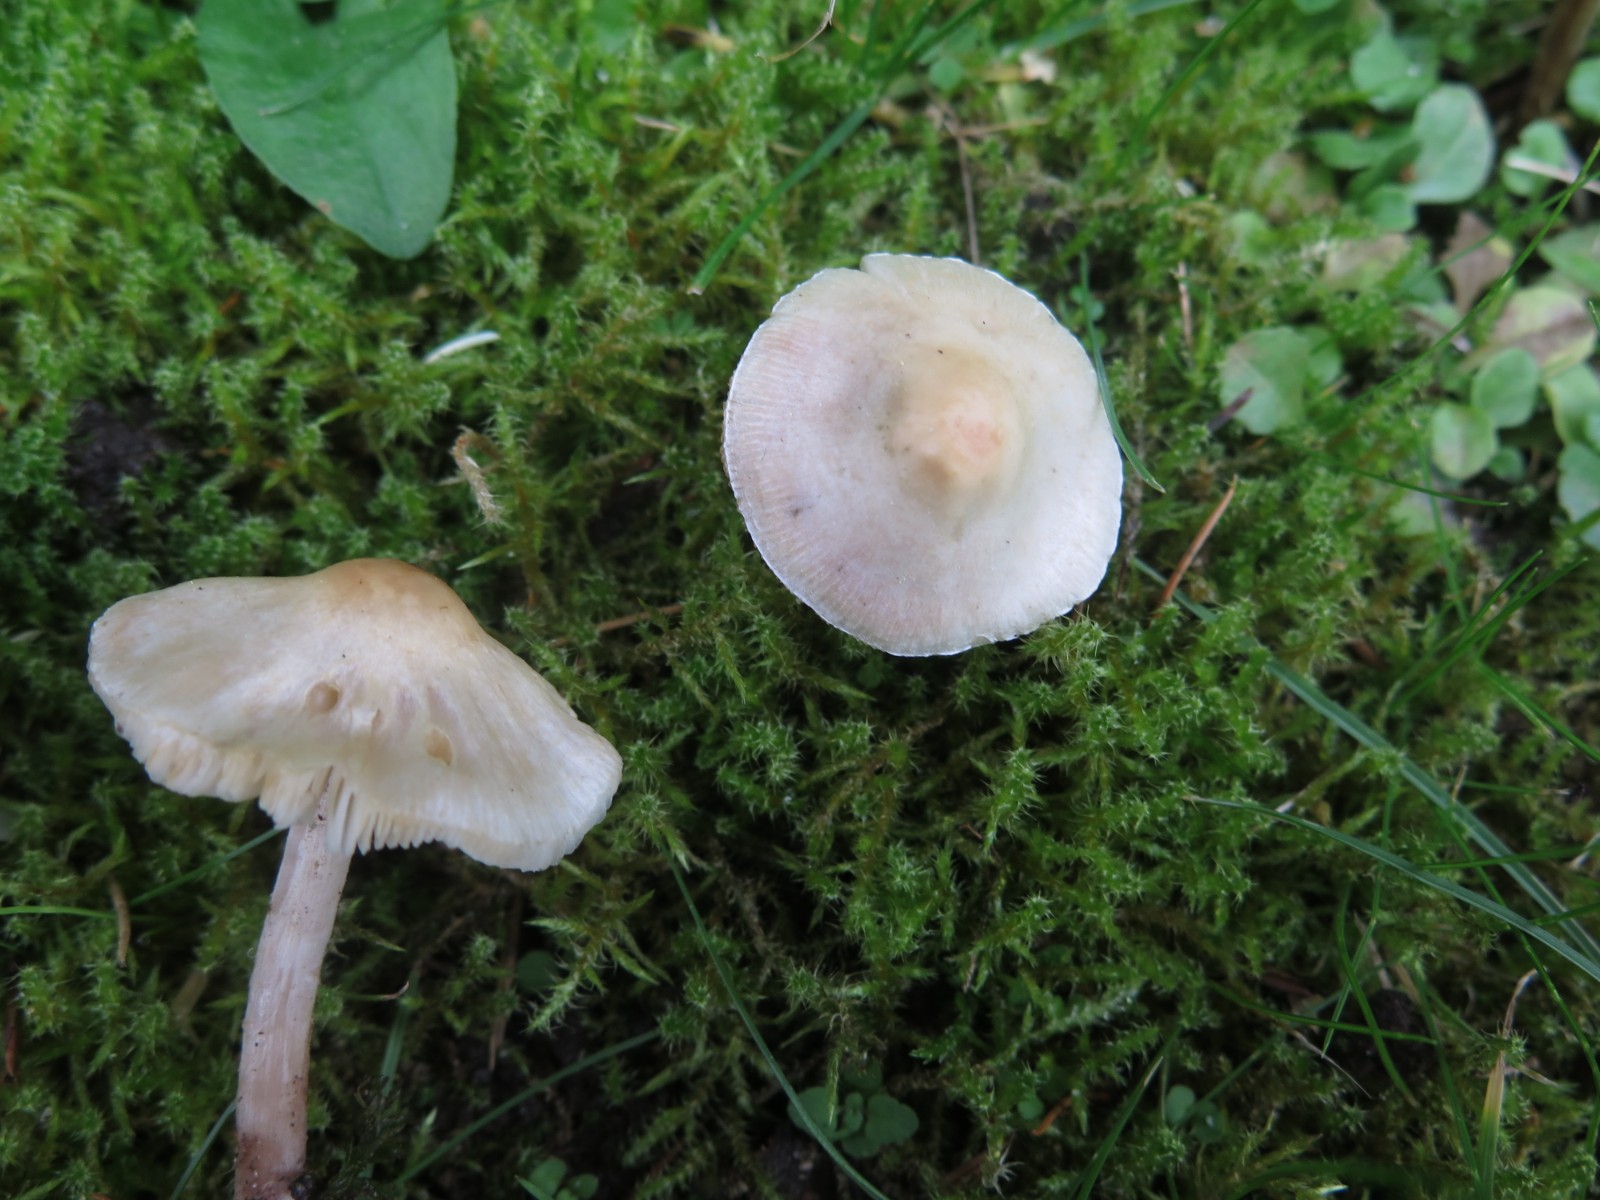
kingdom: Fungi
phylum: Basidiomycota
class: Agaricomycetes
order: Agaricales
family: Agaricaceae
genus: Lepiota
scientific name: Lepiota
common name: parasolhat
